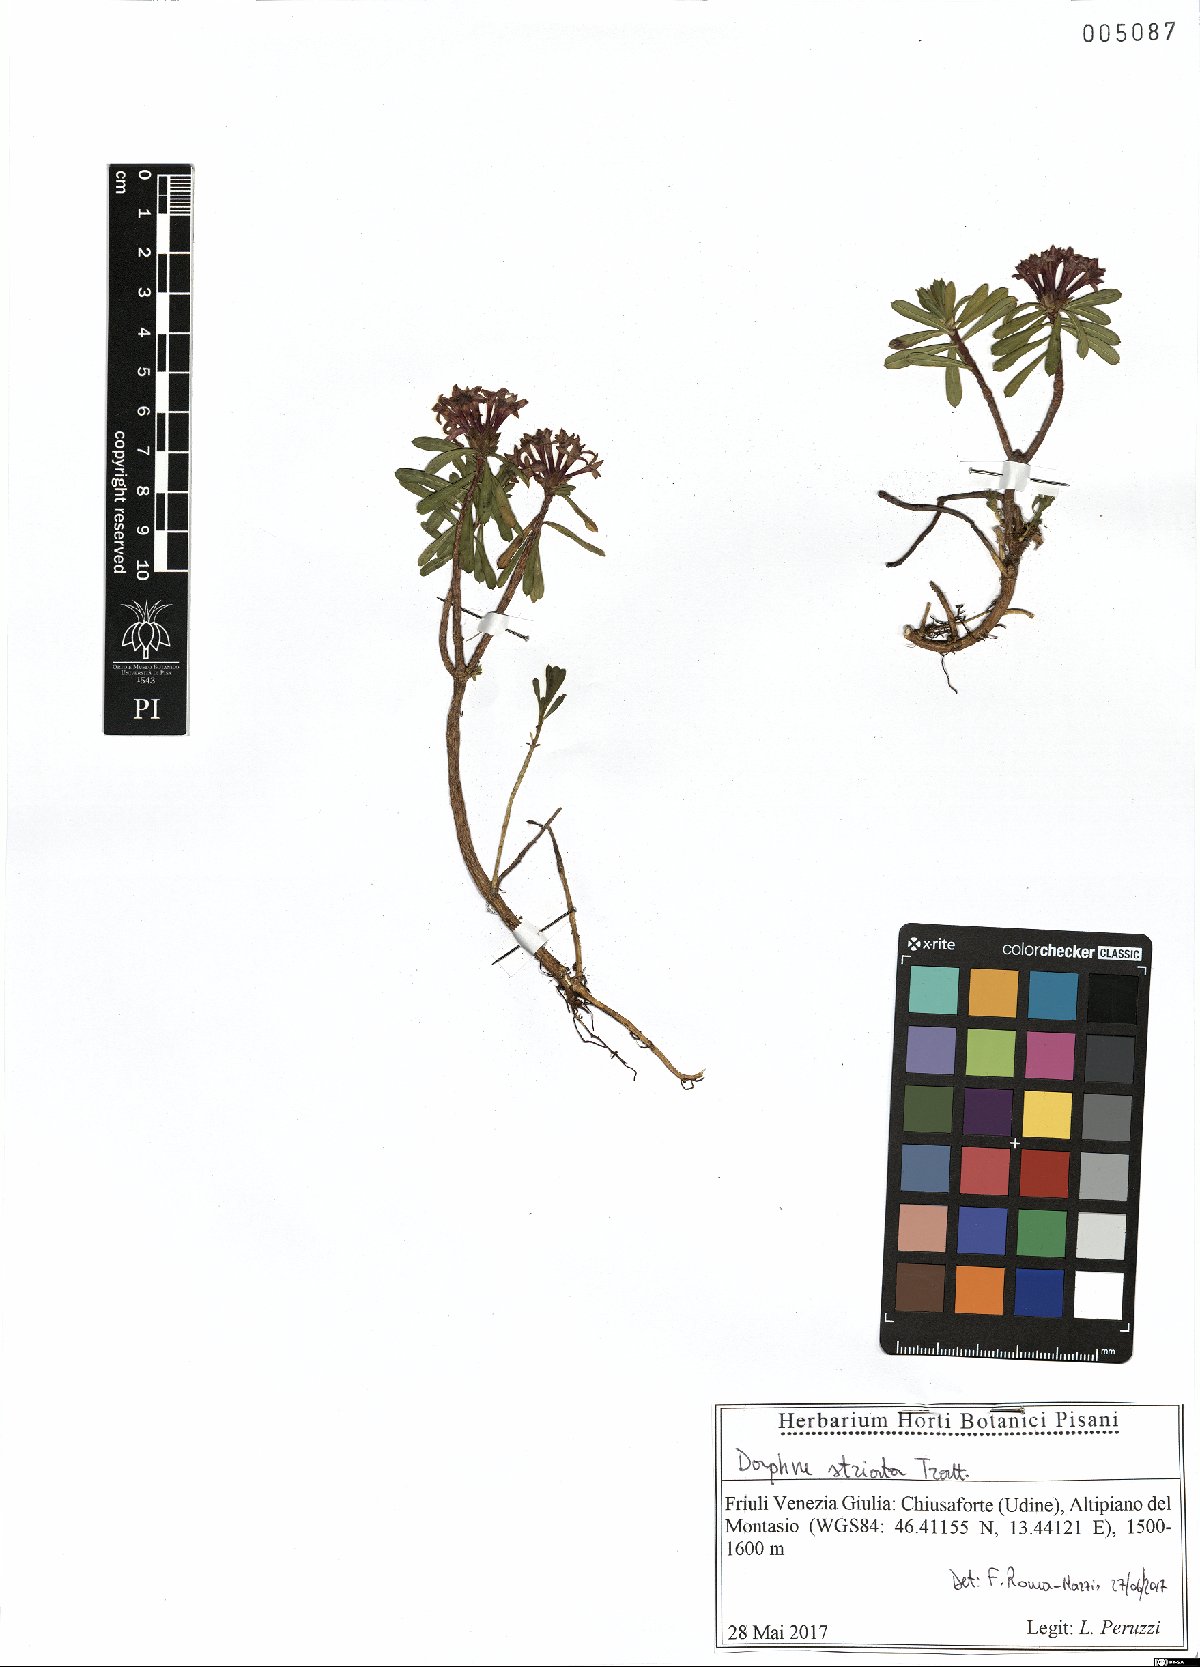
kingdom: Plantae
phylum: Tracheophyta
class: Magnoliopsida
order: Malvales
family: Thymelaeaceae
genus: Daphne
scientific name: Daphne striata
